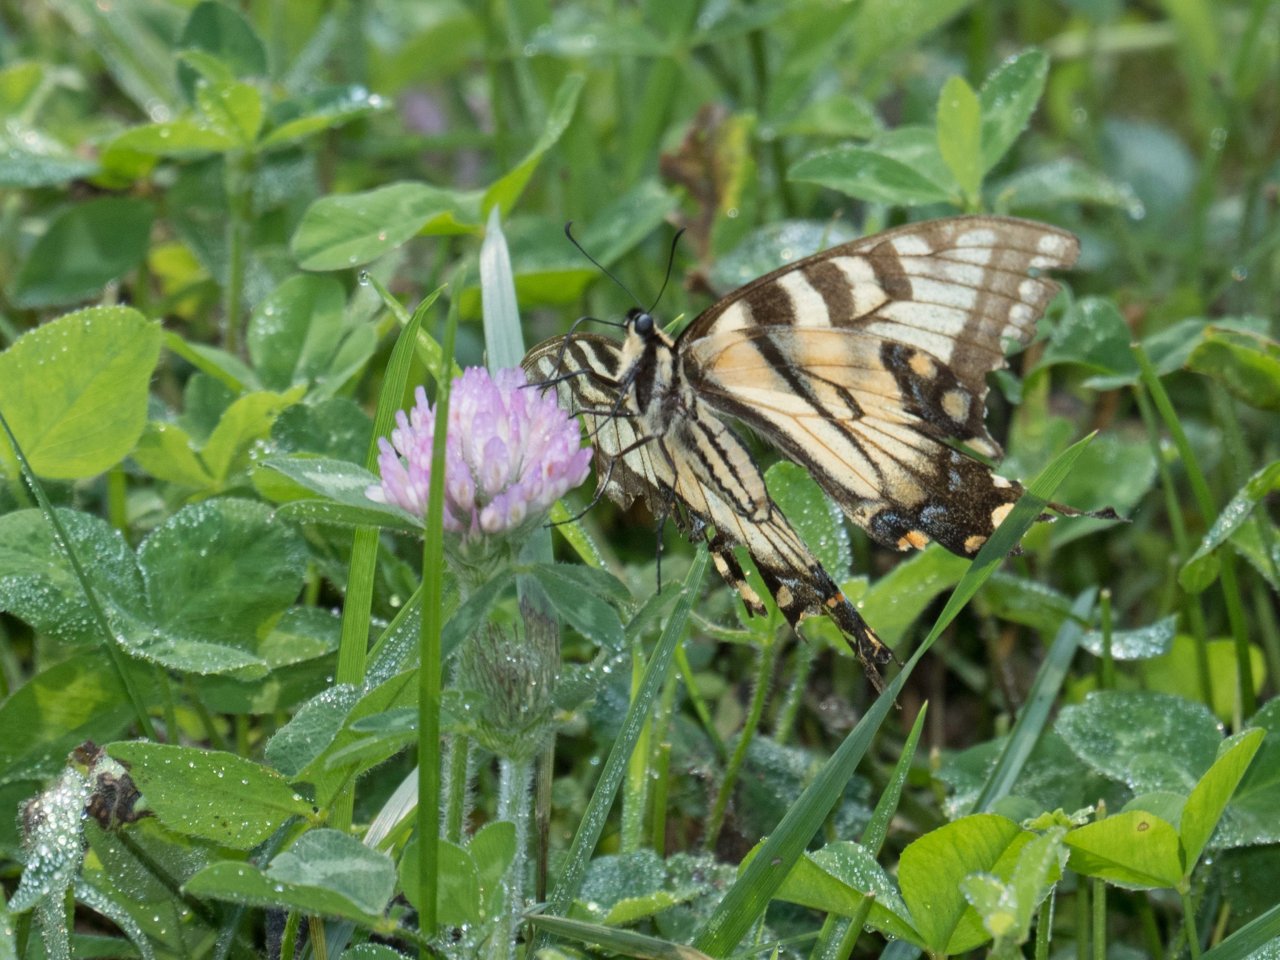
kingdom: Animalia
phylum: Arthropoda
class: Insecta
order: Lepidoptera
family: Papilionidae
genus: Pterourus
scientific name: Pterourus glaucus
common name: Eastern Tiger Swallowtail
